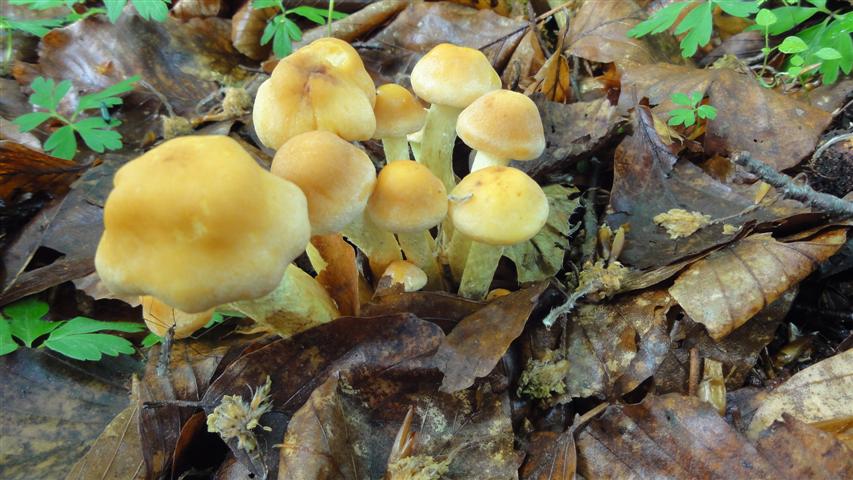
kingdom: Fungi
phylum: Basidiomycota
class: Agaricomycetes
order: Agaricales
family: Strophariaceae
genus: Hypholoma
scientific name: Hypholoma fasciculare
